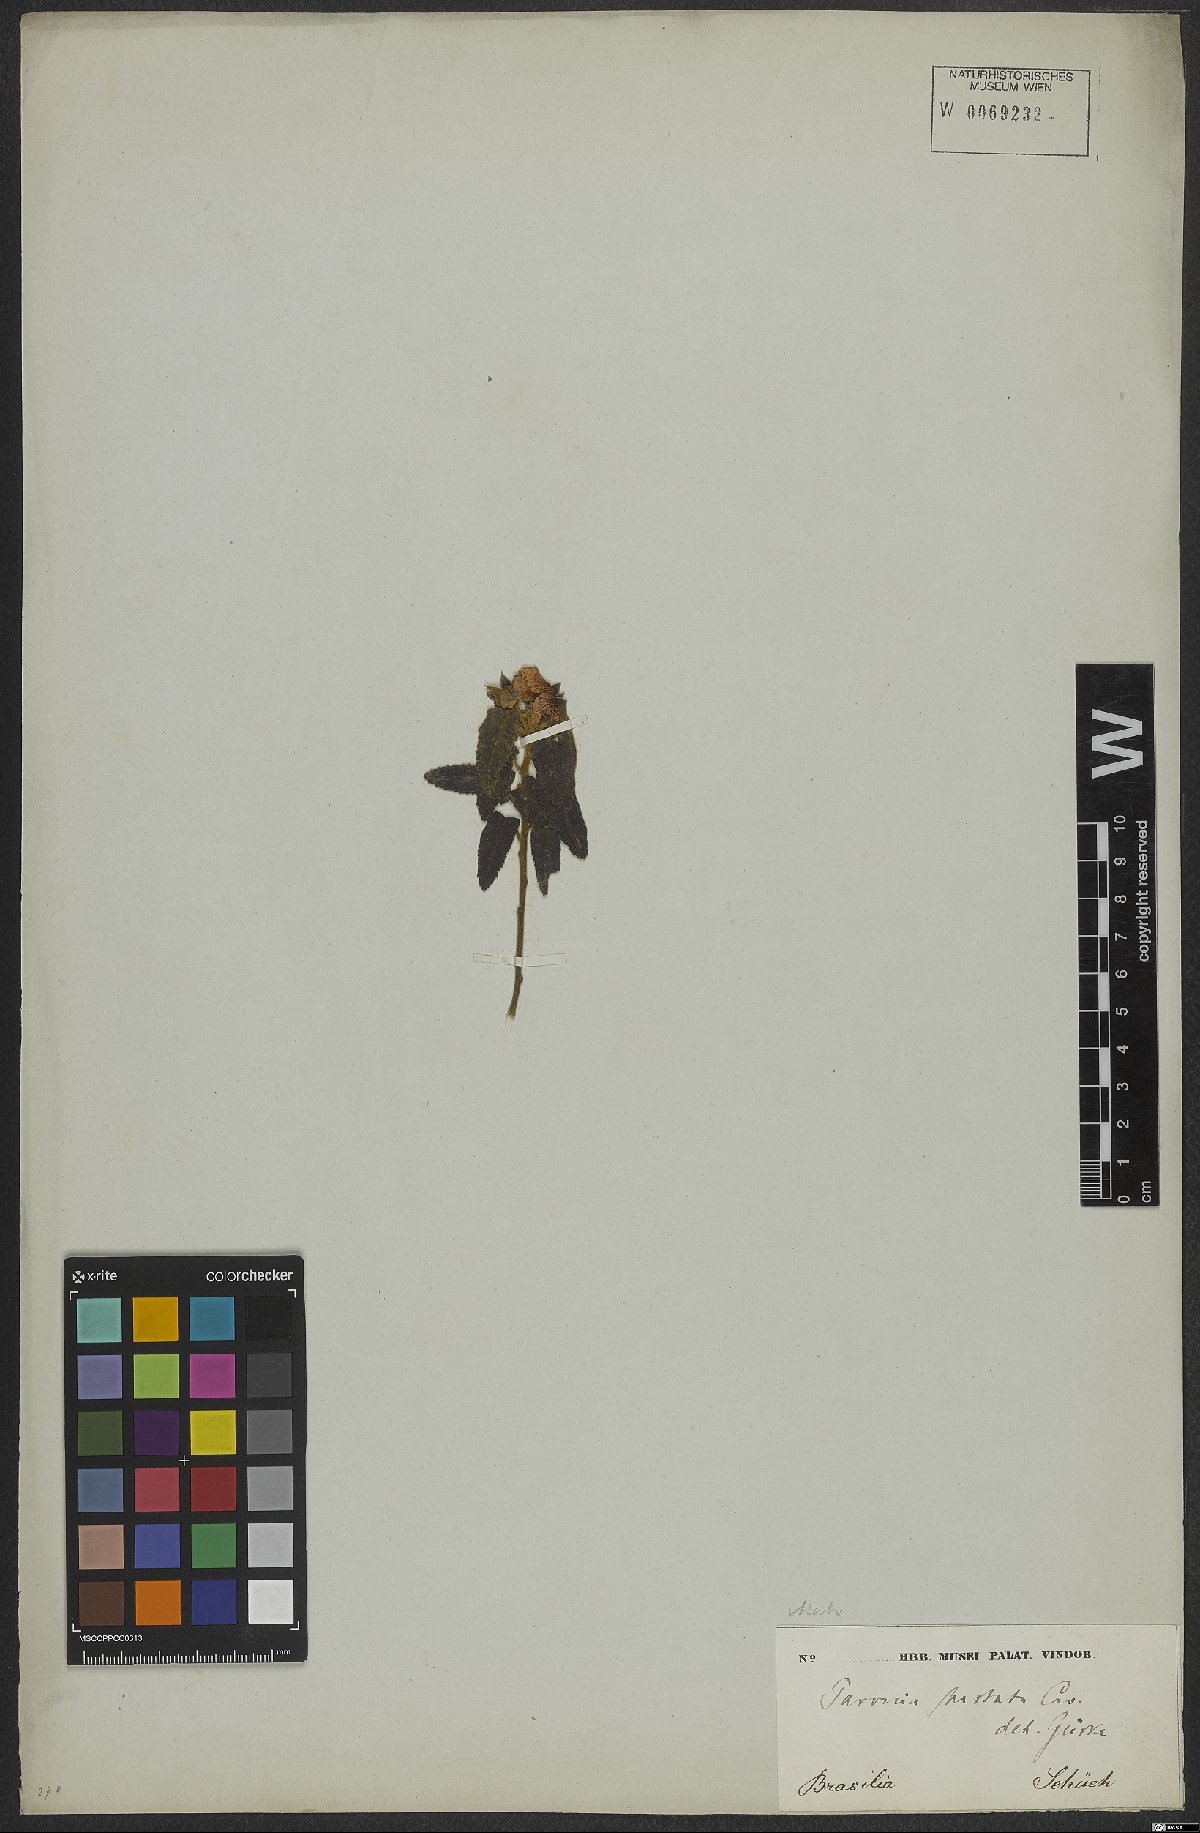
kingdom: Plantae
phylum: Tracheophyta
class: Magnoliopsida
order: Malvales
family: Malvaceae
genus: Pavonia
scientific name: Pavonia hastata
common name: Spearleaf swampmallow
